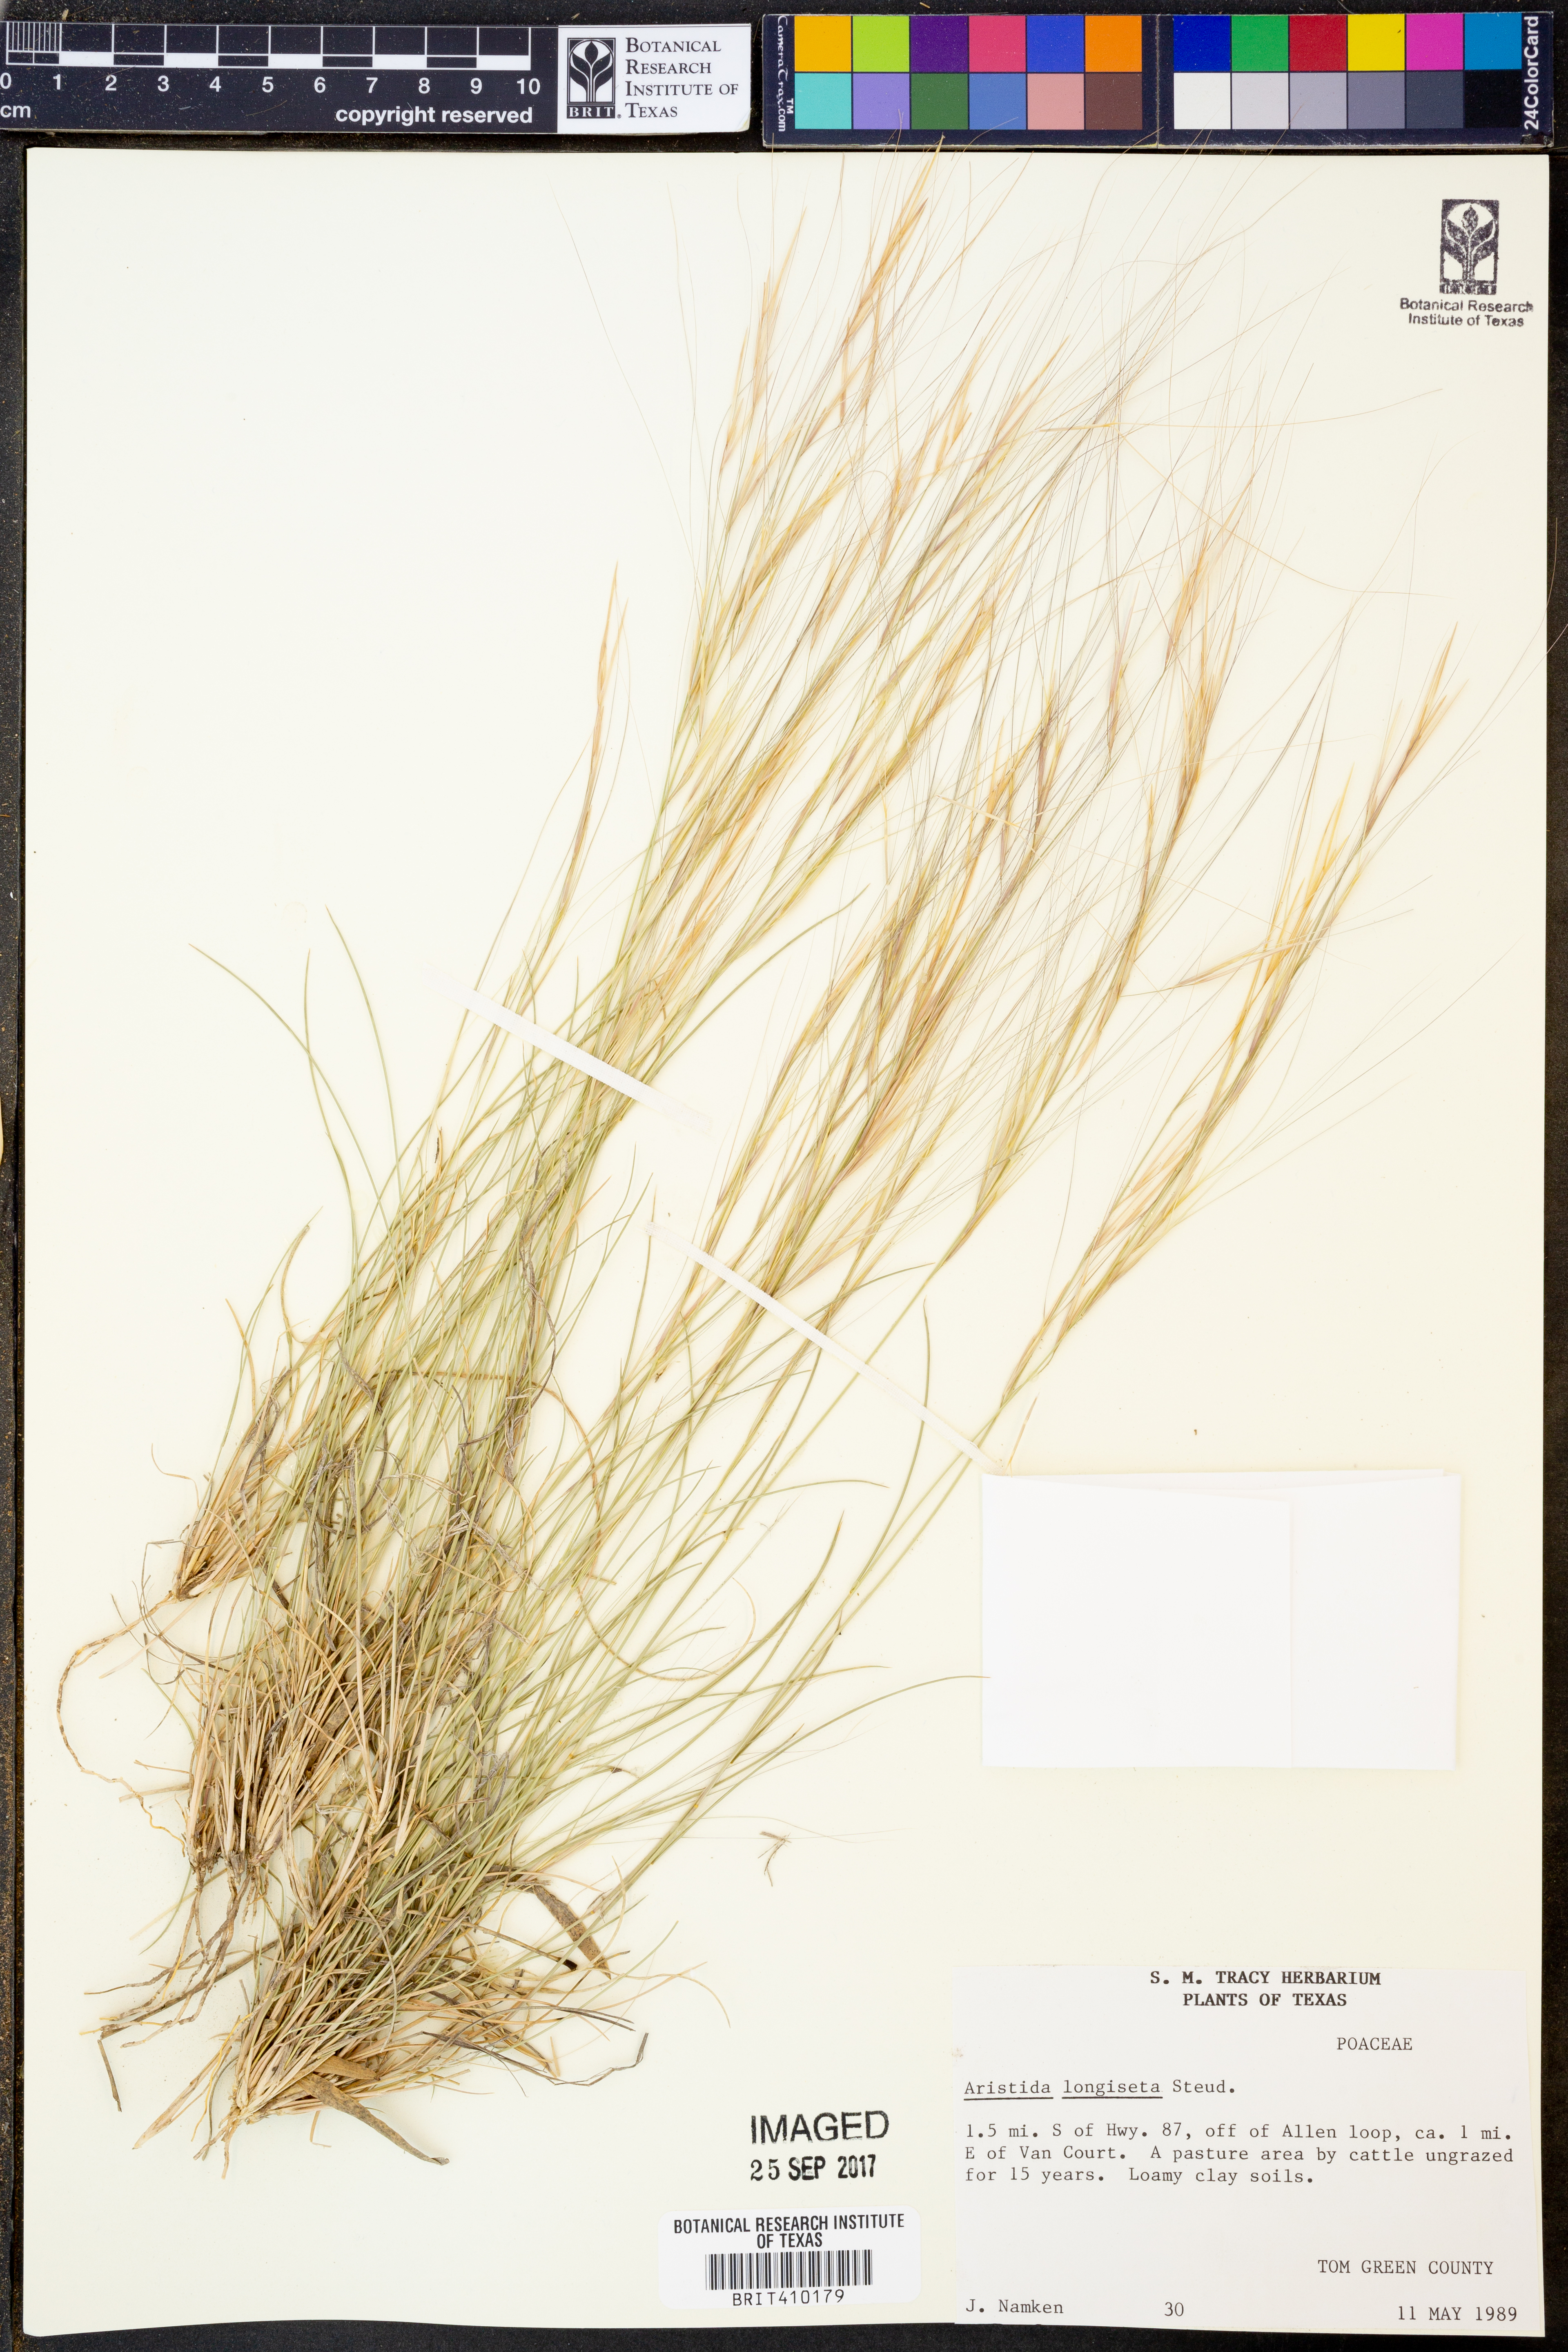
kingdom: Plantae
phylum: Tracheophyta
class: Liliopsida
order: Poales
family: Poaceae
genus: Aristida
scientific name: Aristida longiseta
